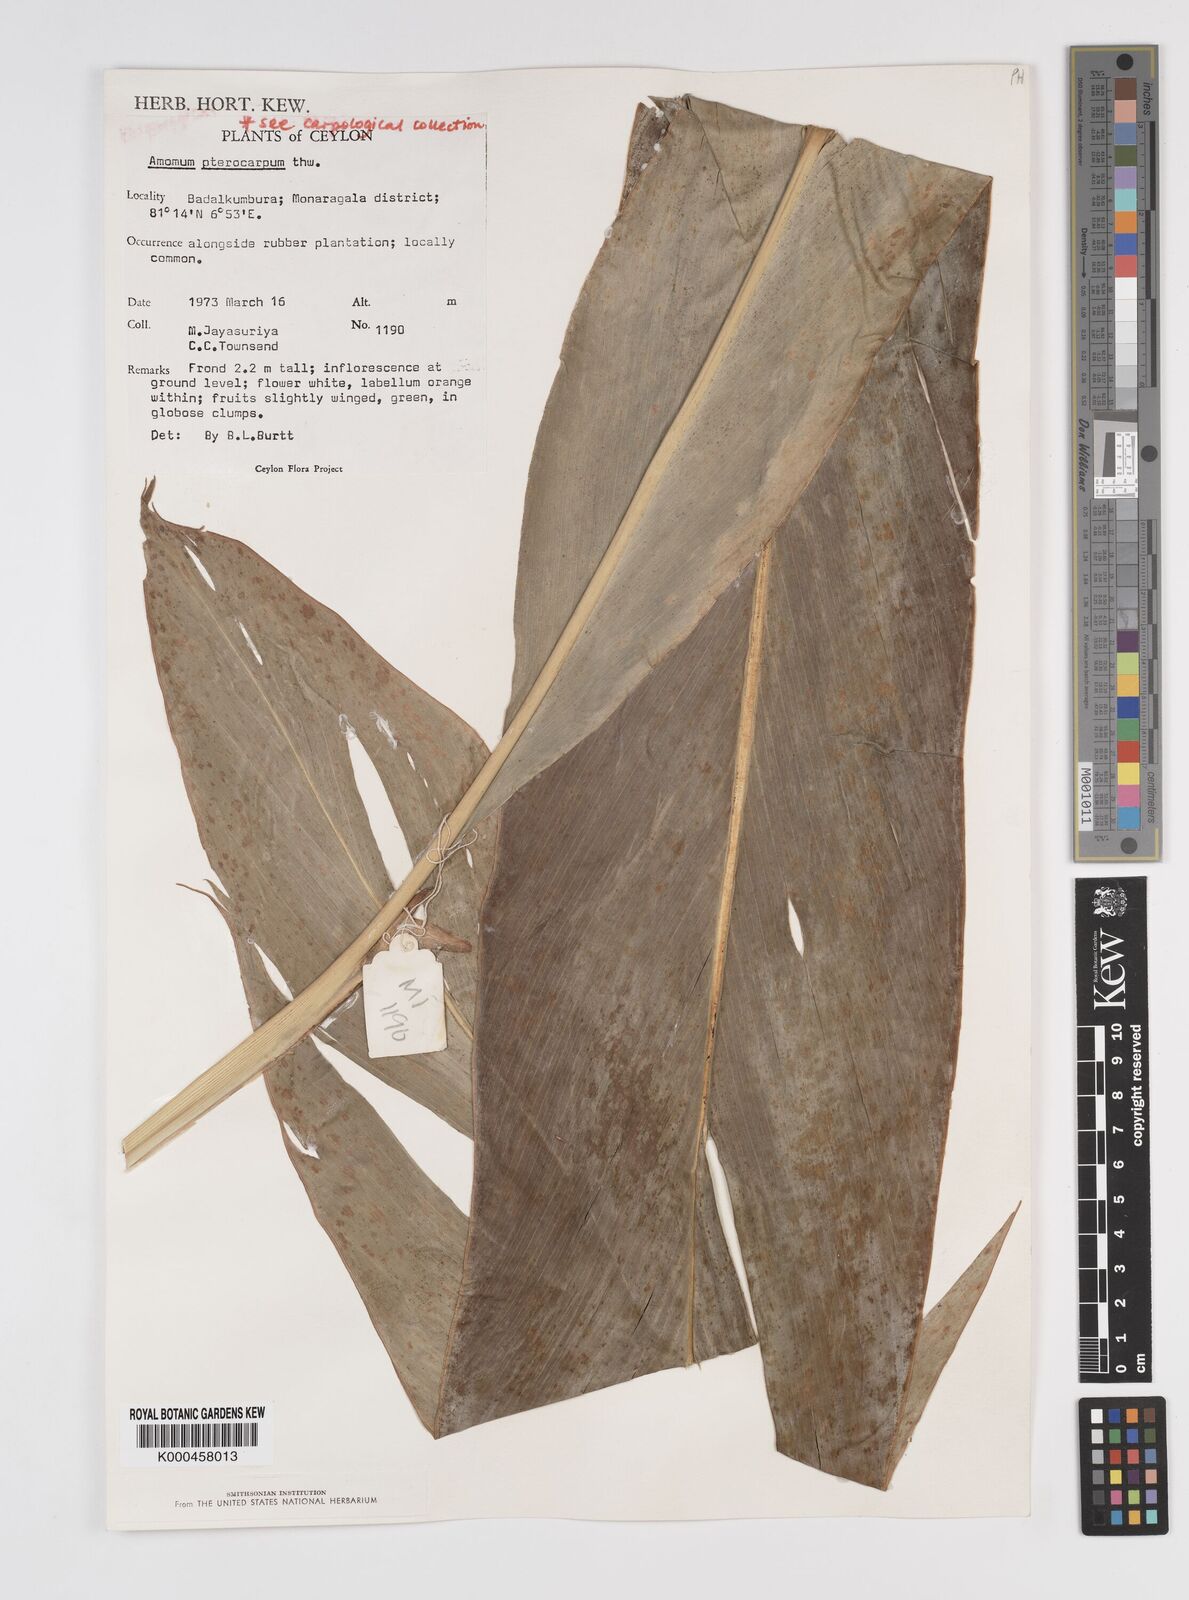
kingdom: Plantae
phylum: Tracheophyta
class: Liliopsida
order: Zingiberales
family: Zingiberaceae
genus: Amomum
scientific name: Amomum
